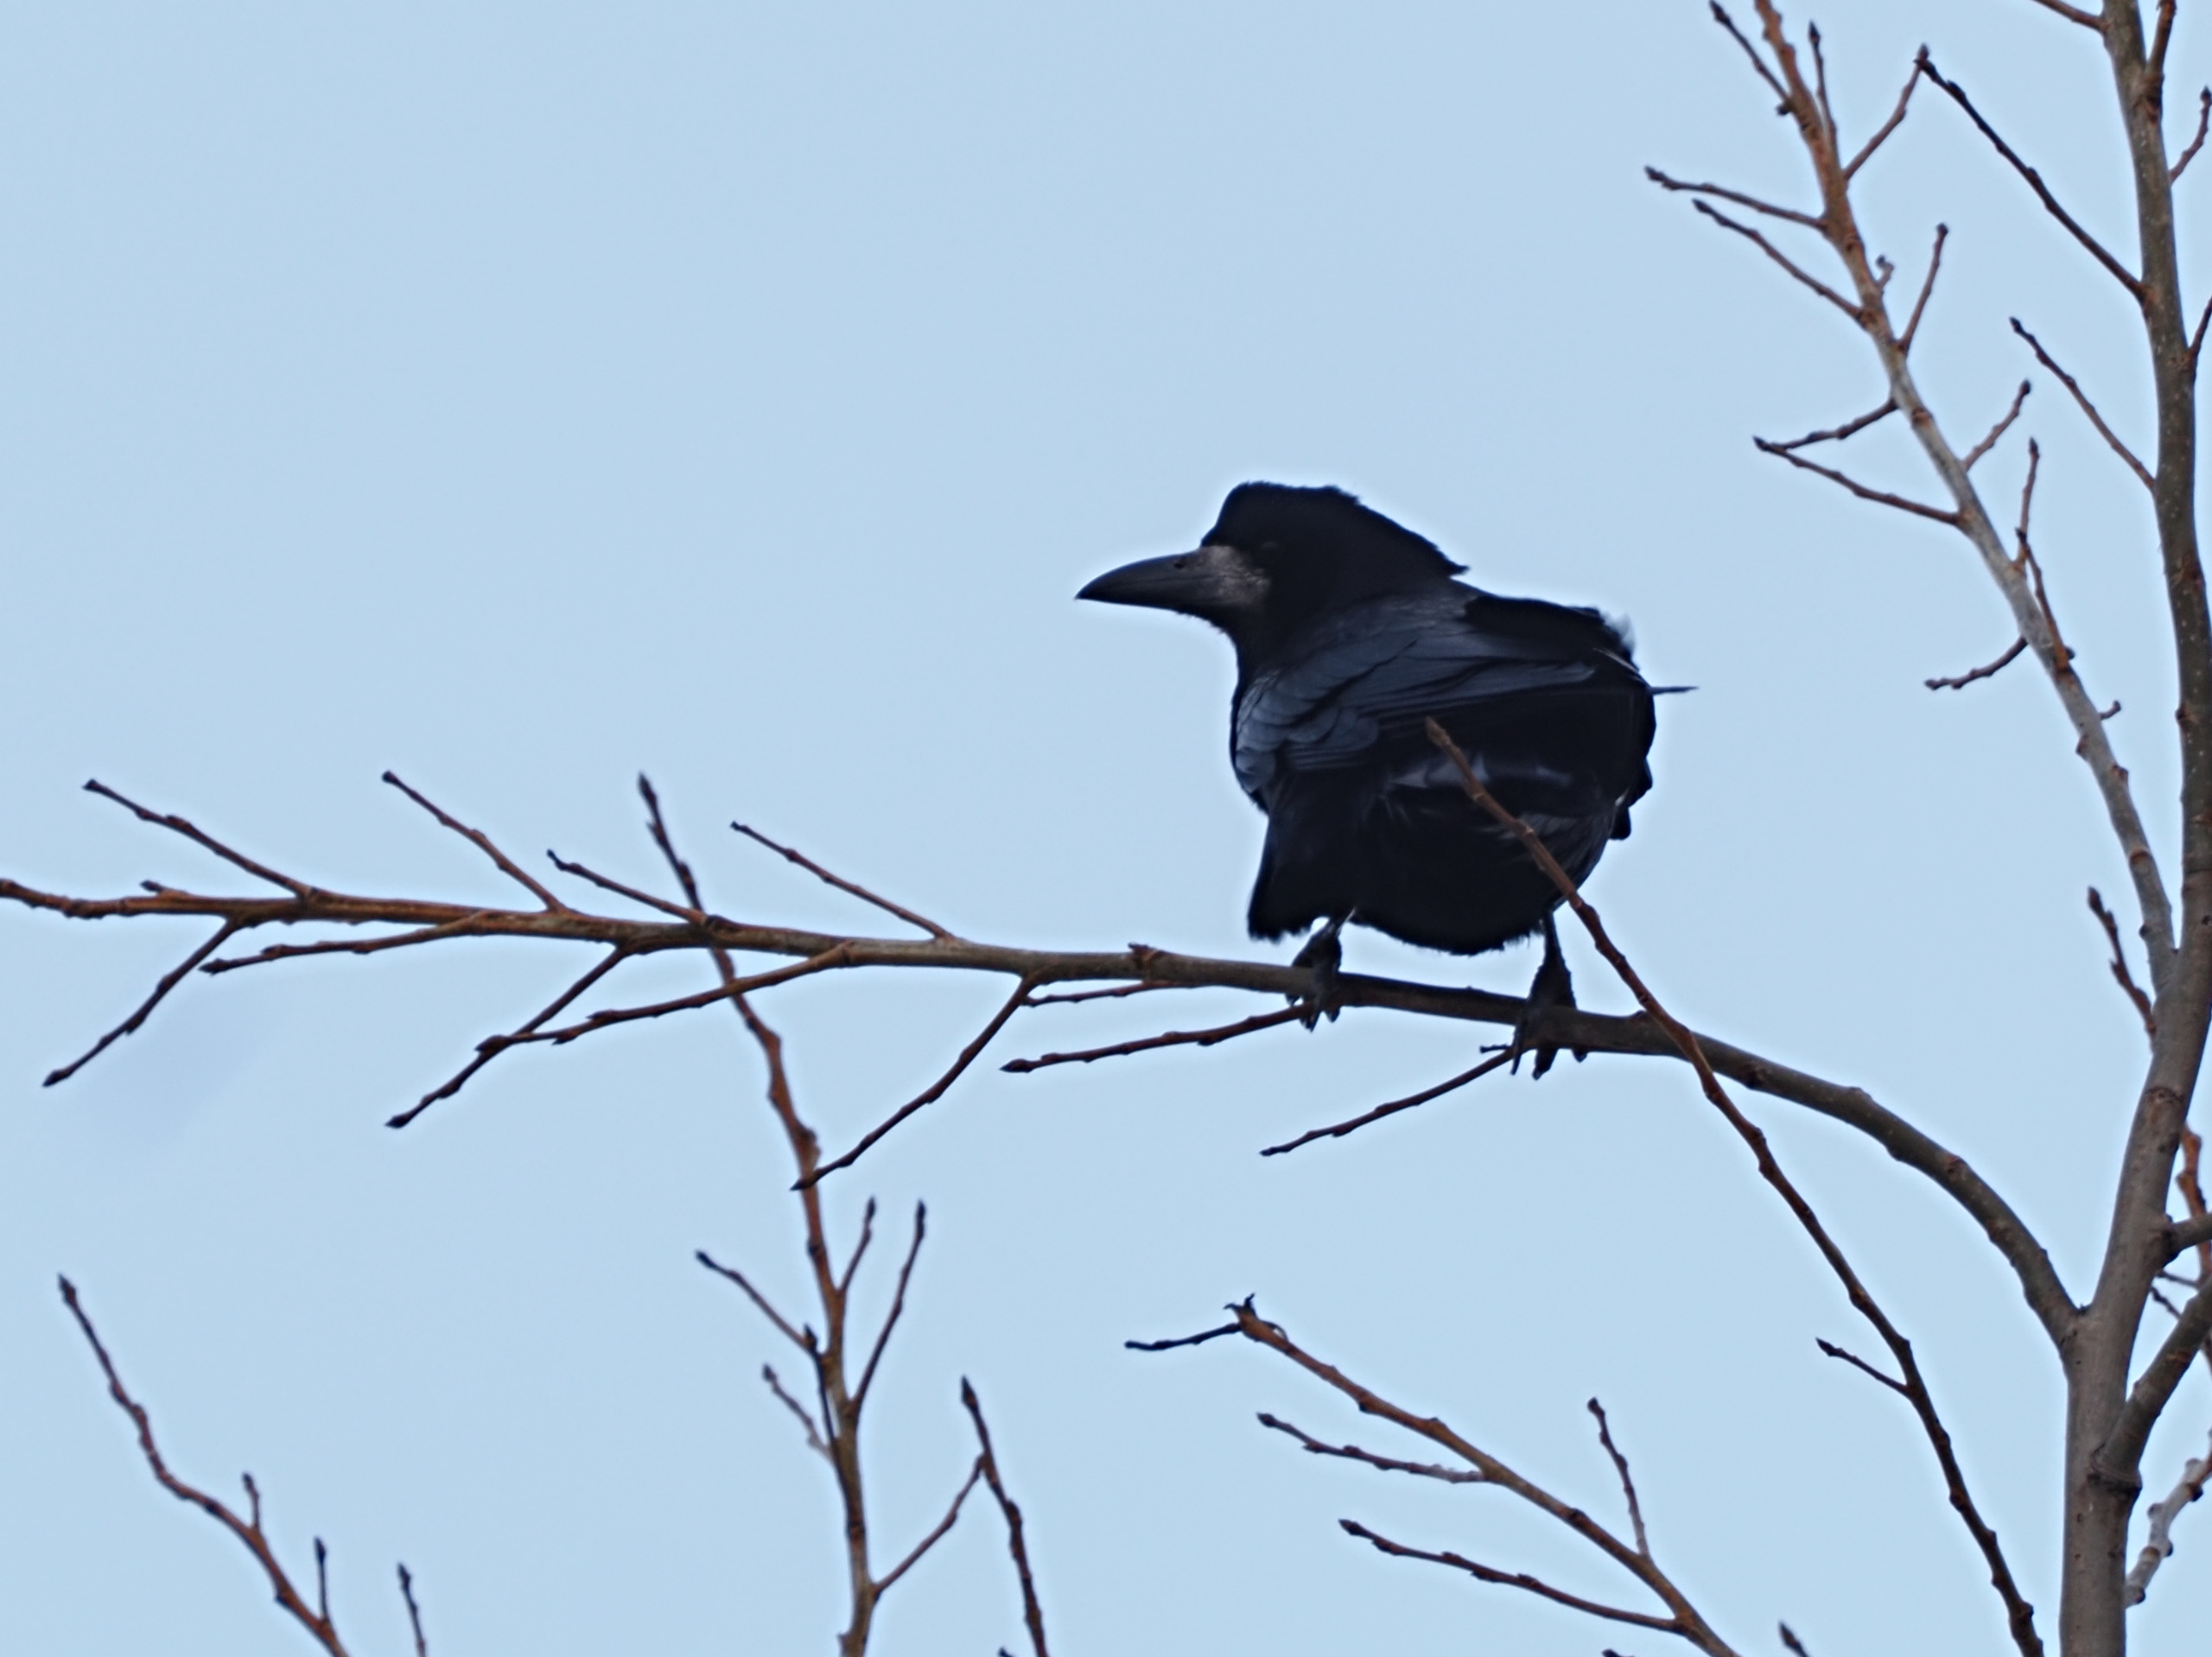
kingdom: Animalia
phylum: Chordata
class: Aves
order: Passeriformes
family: Corvidae
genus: Corvus
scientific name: Corvus frugilegus
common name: Råge
